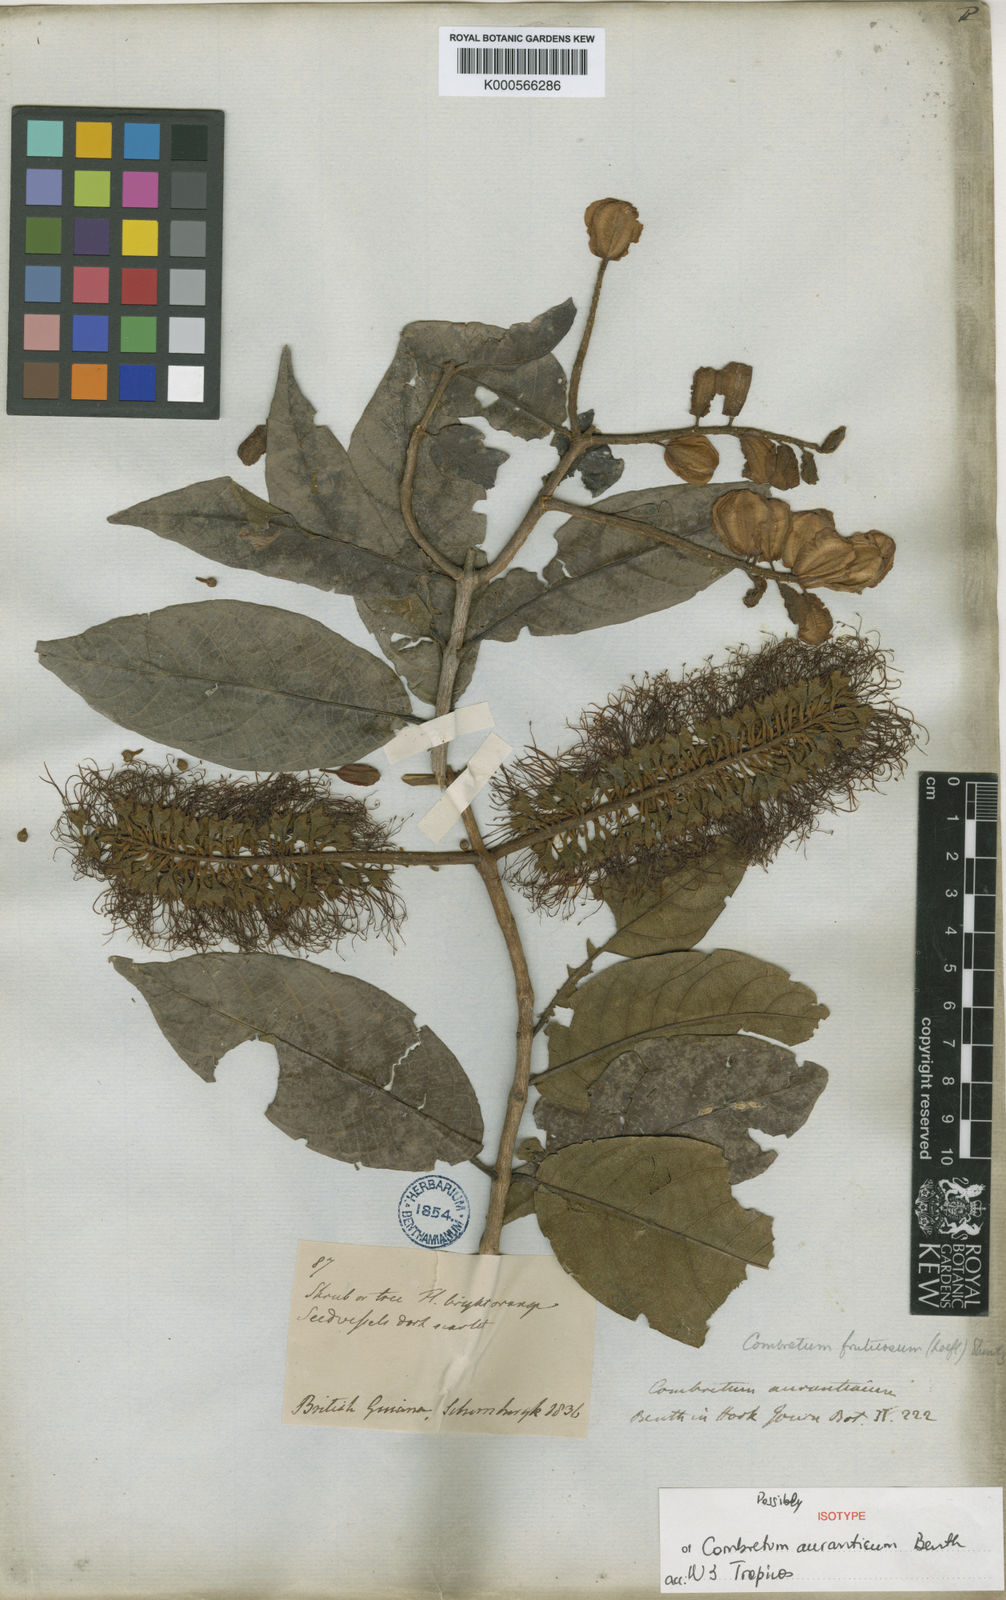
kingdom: Plantae
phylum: Tracheophyta
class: Magnoliopsida
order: Myrtales
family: Combretaceae
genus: Combretum
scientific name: Combretum fruticosum
